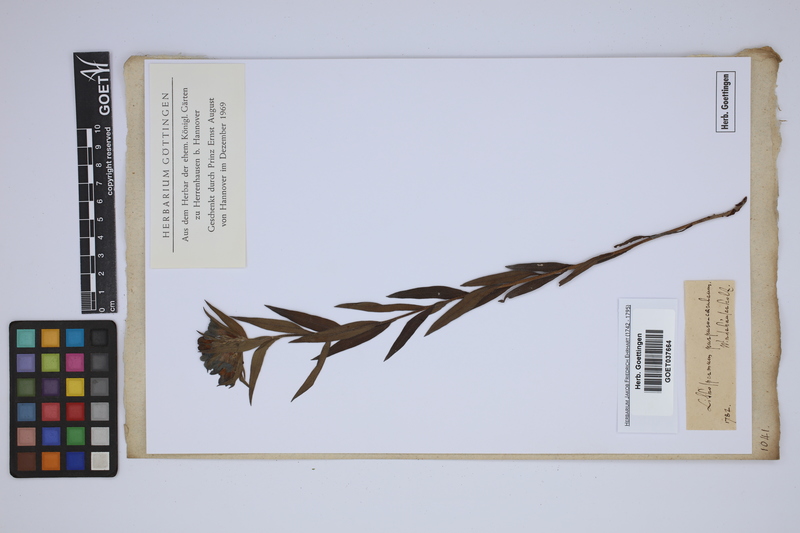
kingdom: Plantae
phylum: Tracheophyta
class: Magnoliopsida
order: Boraginales
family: Boraginaceae
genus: Aegonychon
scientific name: Aegonychon purpurocaeruleum
